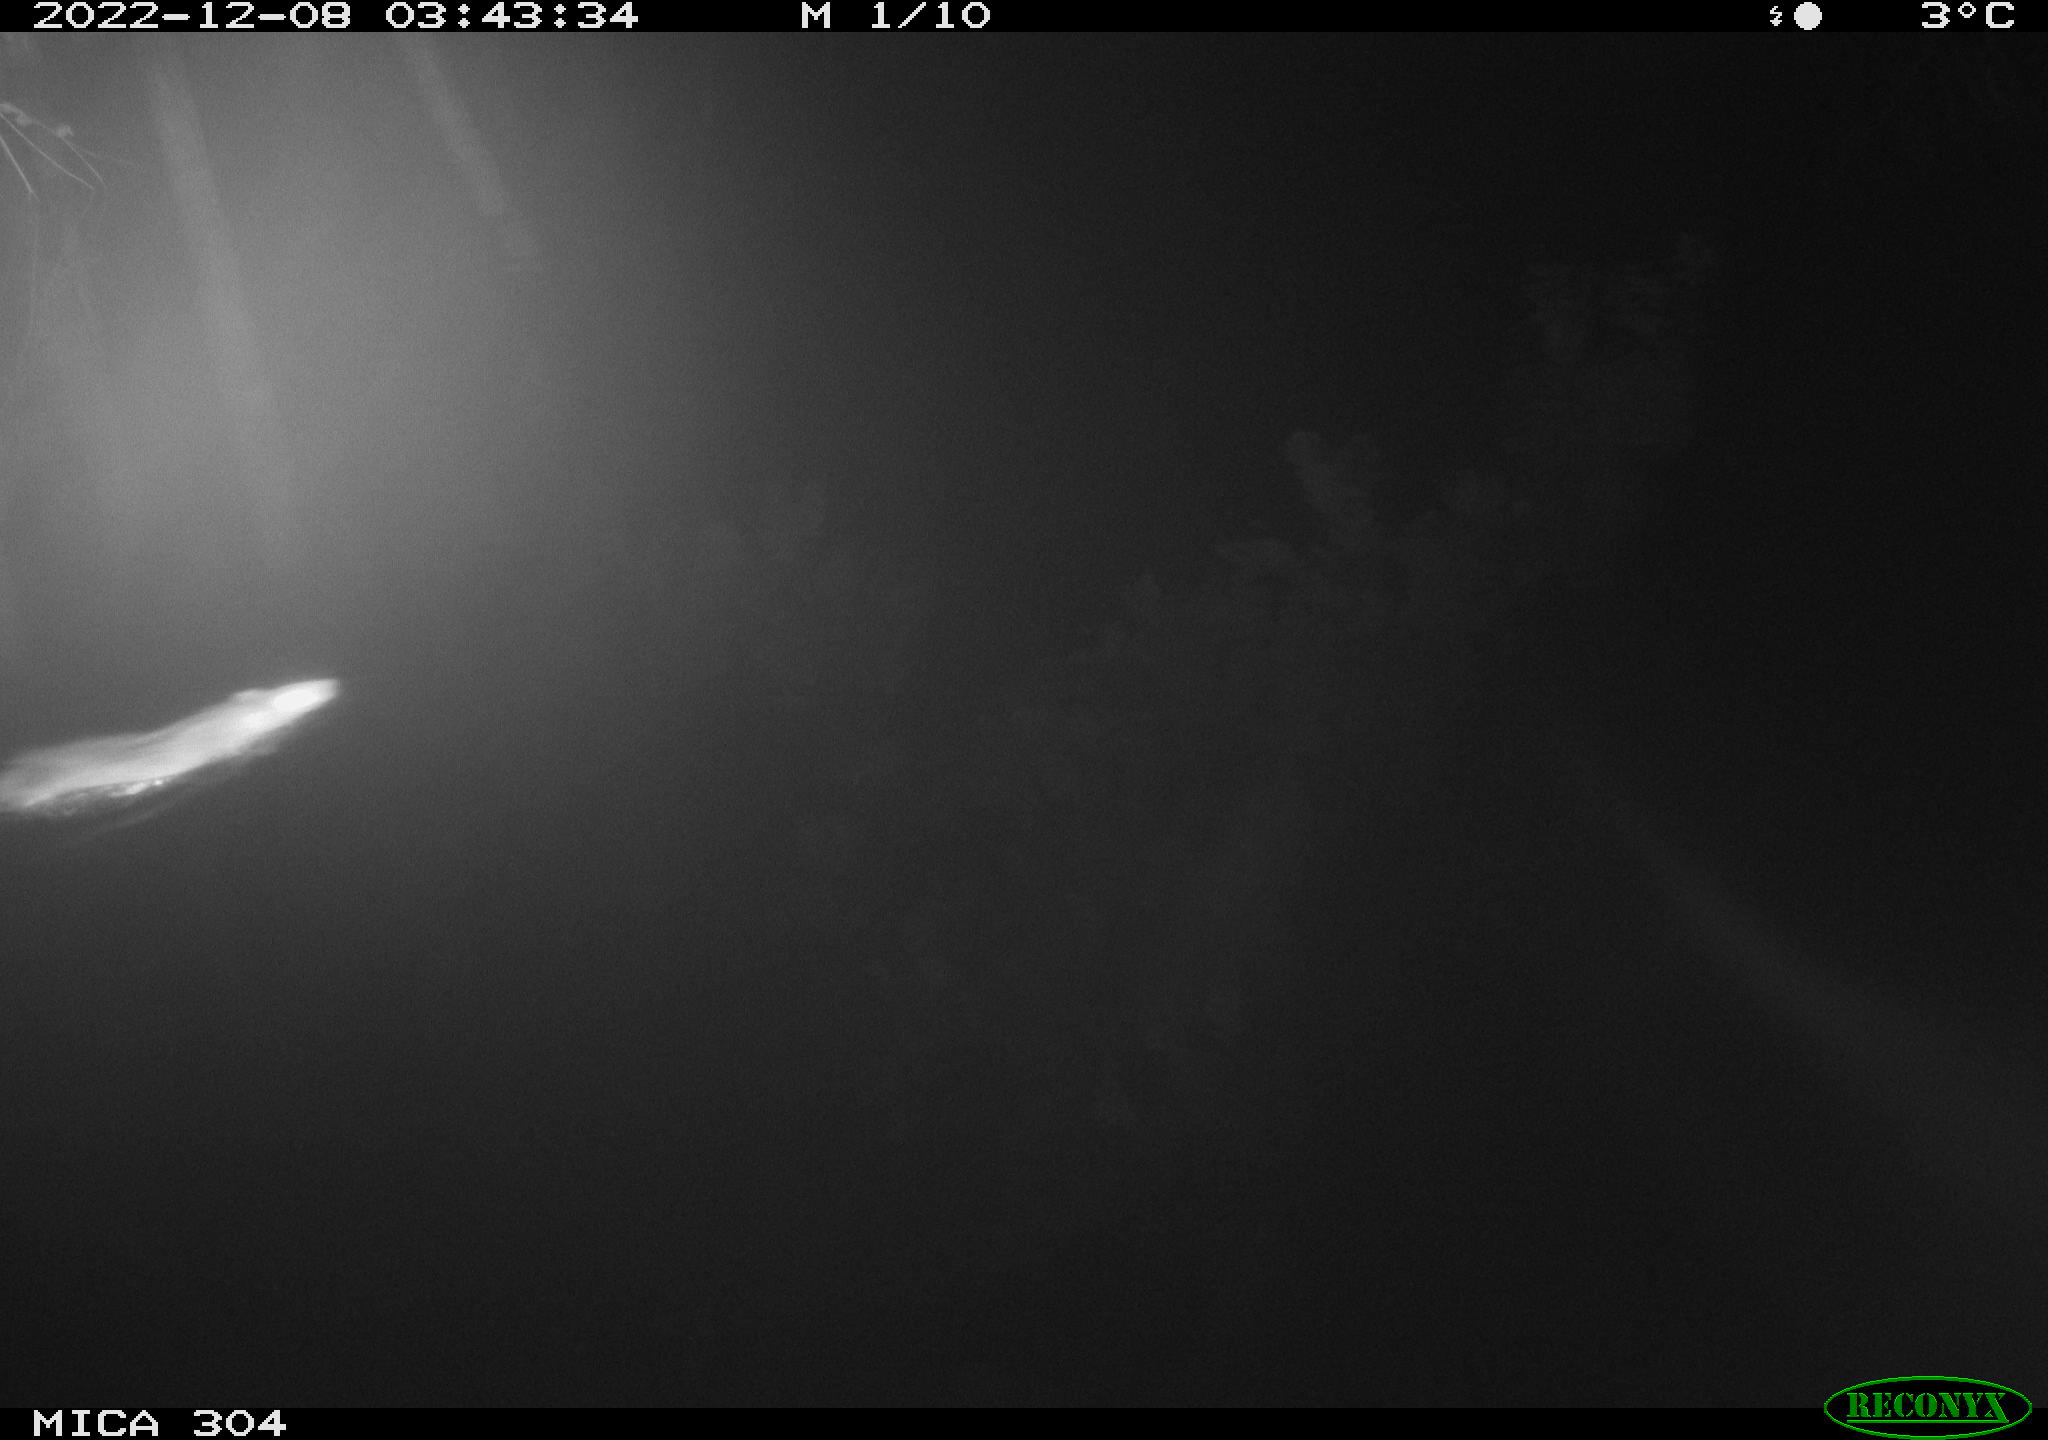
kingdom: Animalia
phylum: Chordata
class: Mammalia
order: Rodentia
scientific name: Rodentia
